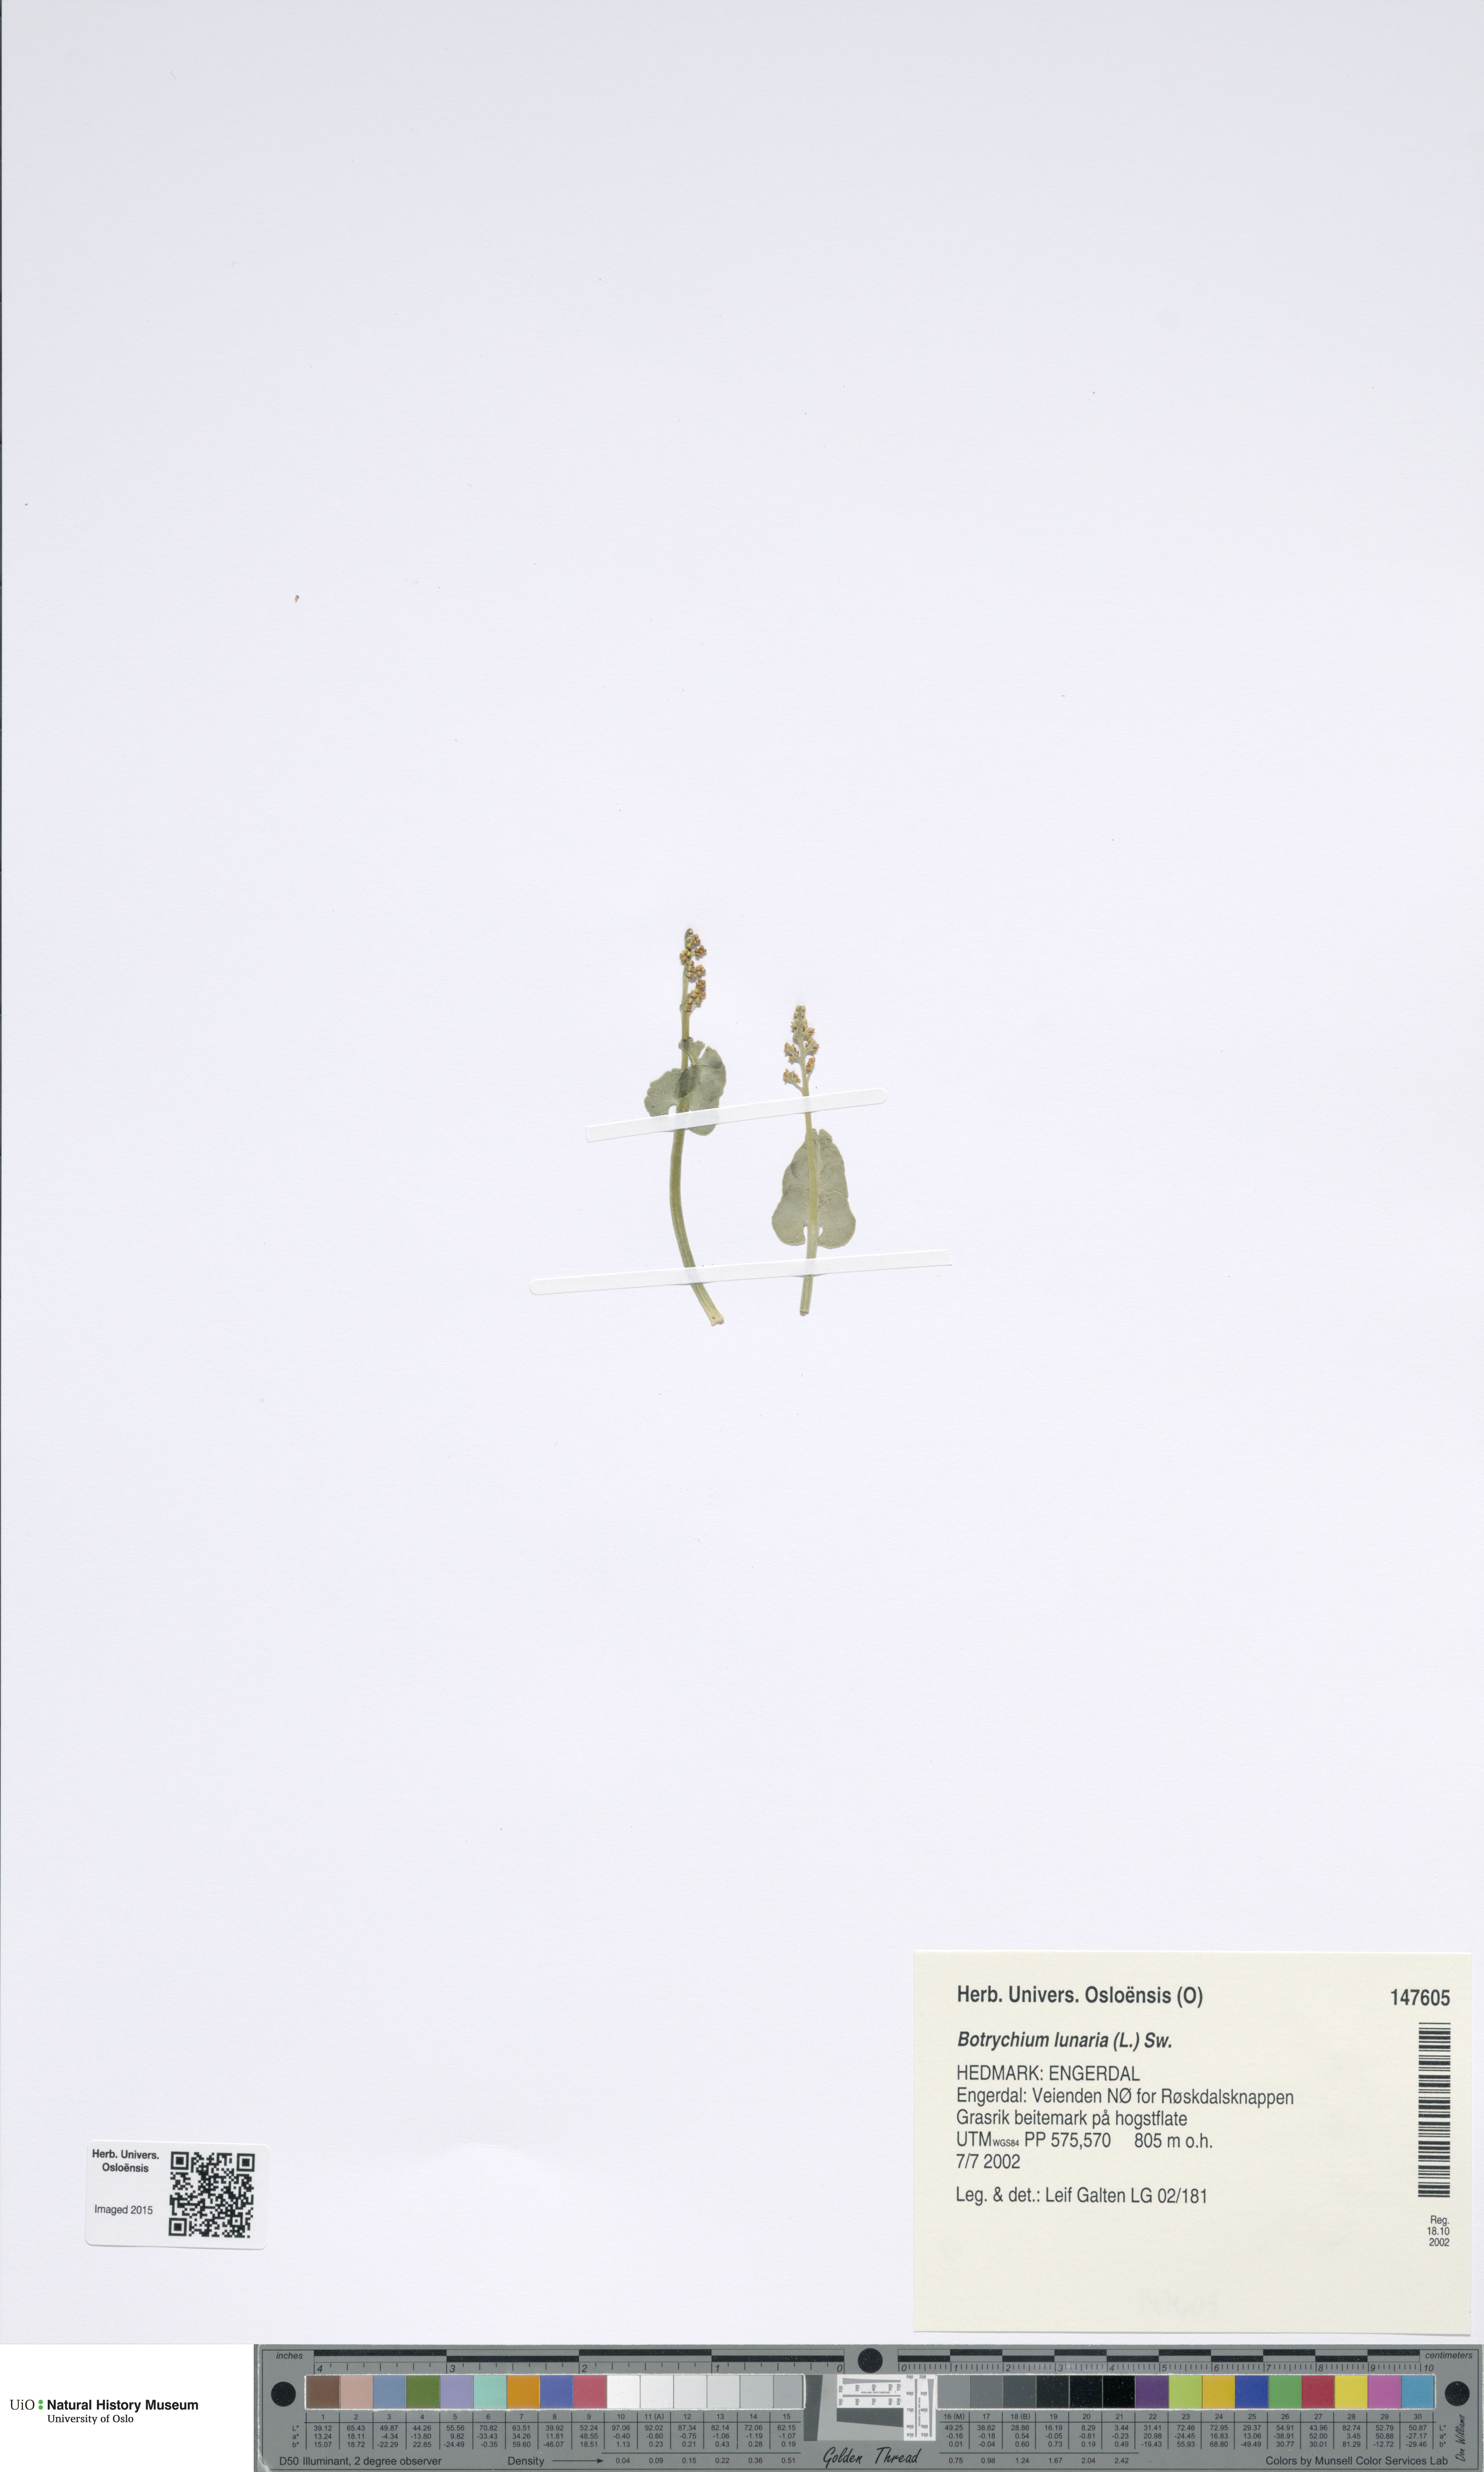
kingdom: Plantae
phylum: Tracheophyta
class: Polypodiopsida
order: Ophioglossales
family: Ophioglossaceae
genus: Botrychium
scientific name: Botrychium lunaria
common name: Moonwort
